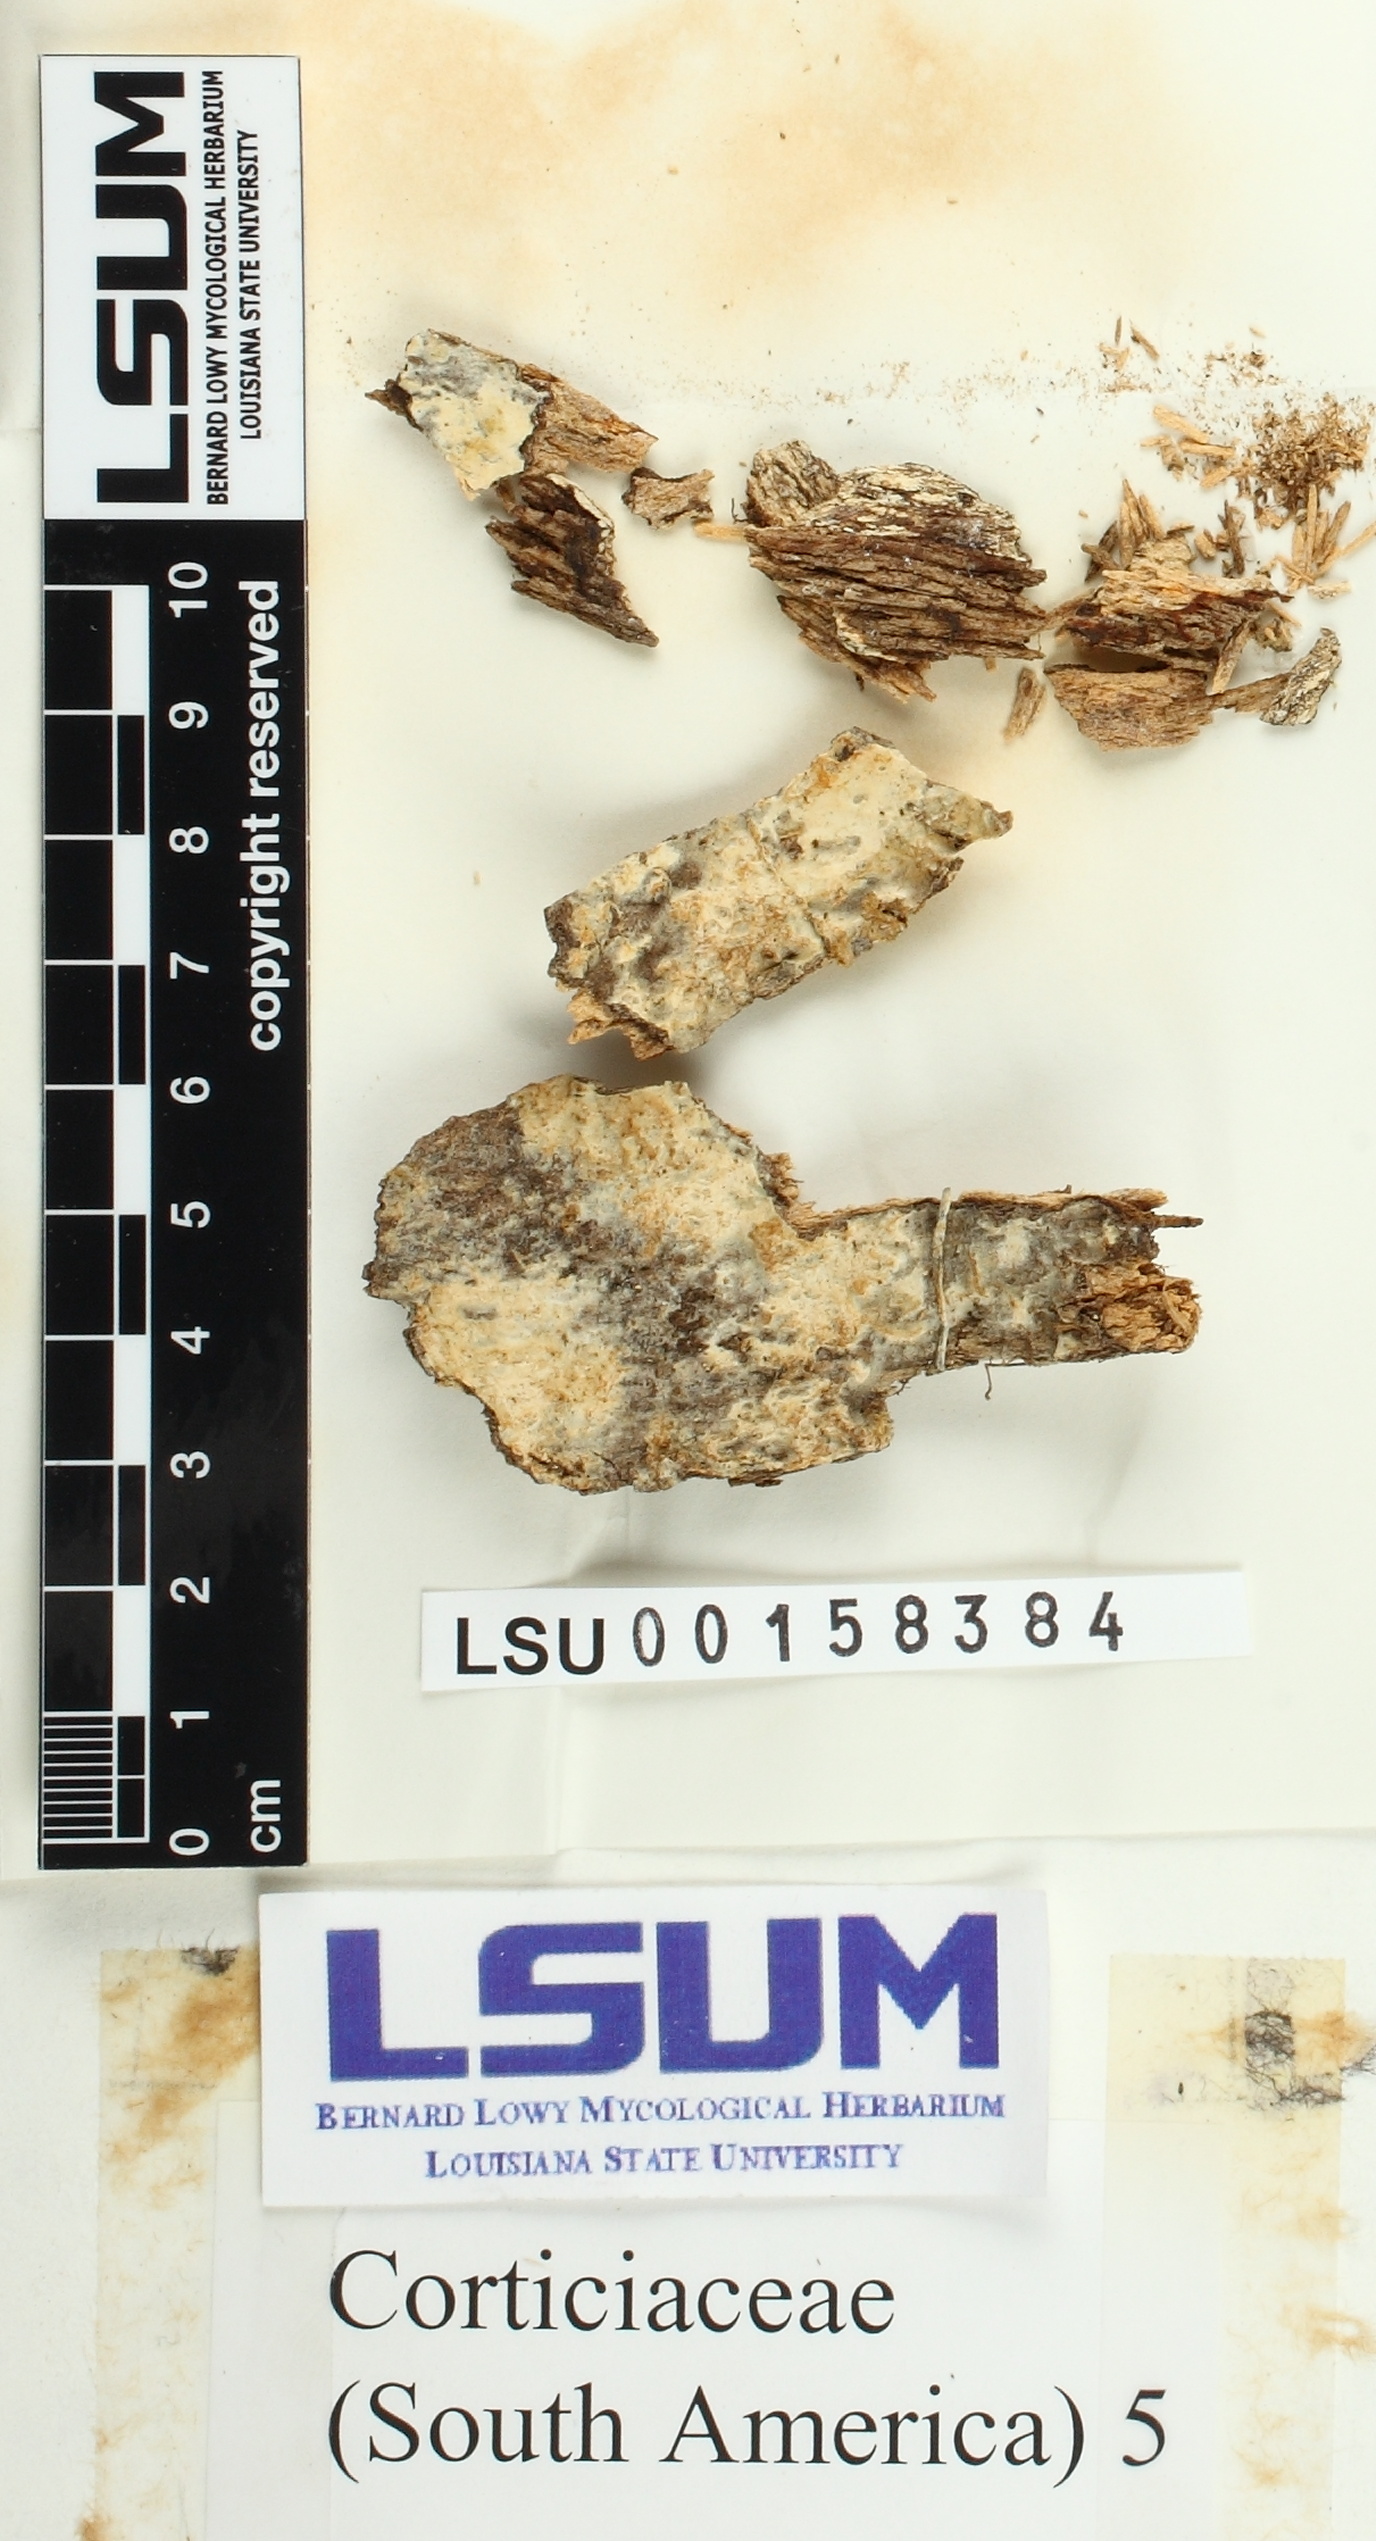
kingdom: Fungi
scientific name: Fungi
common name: Fungi
